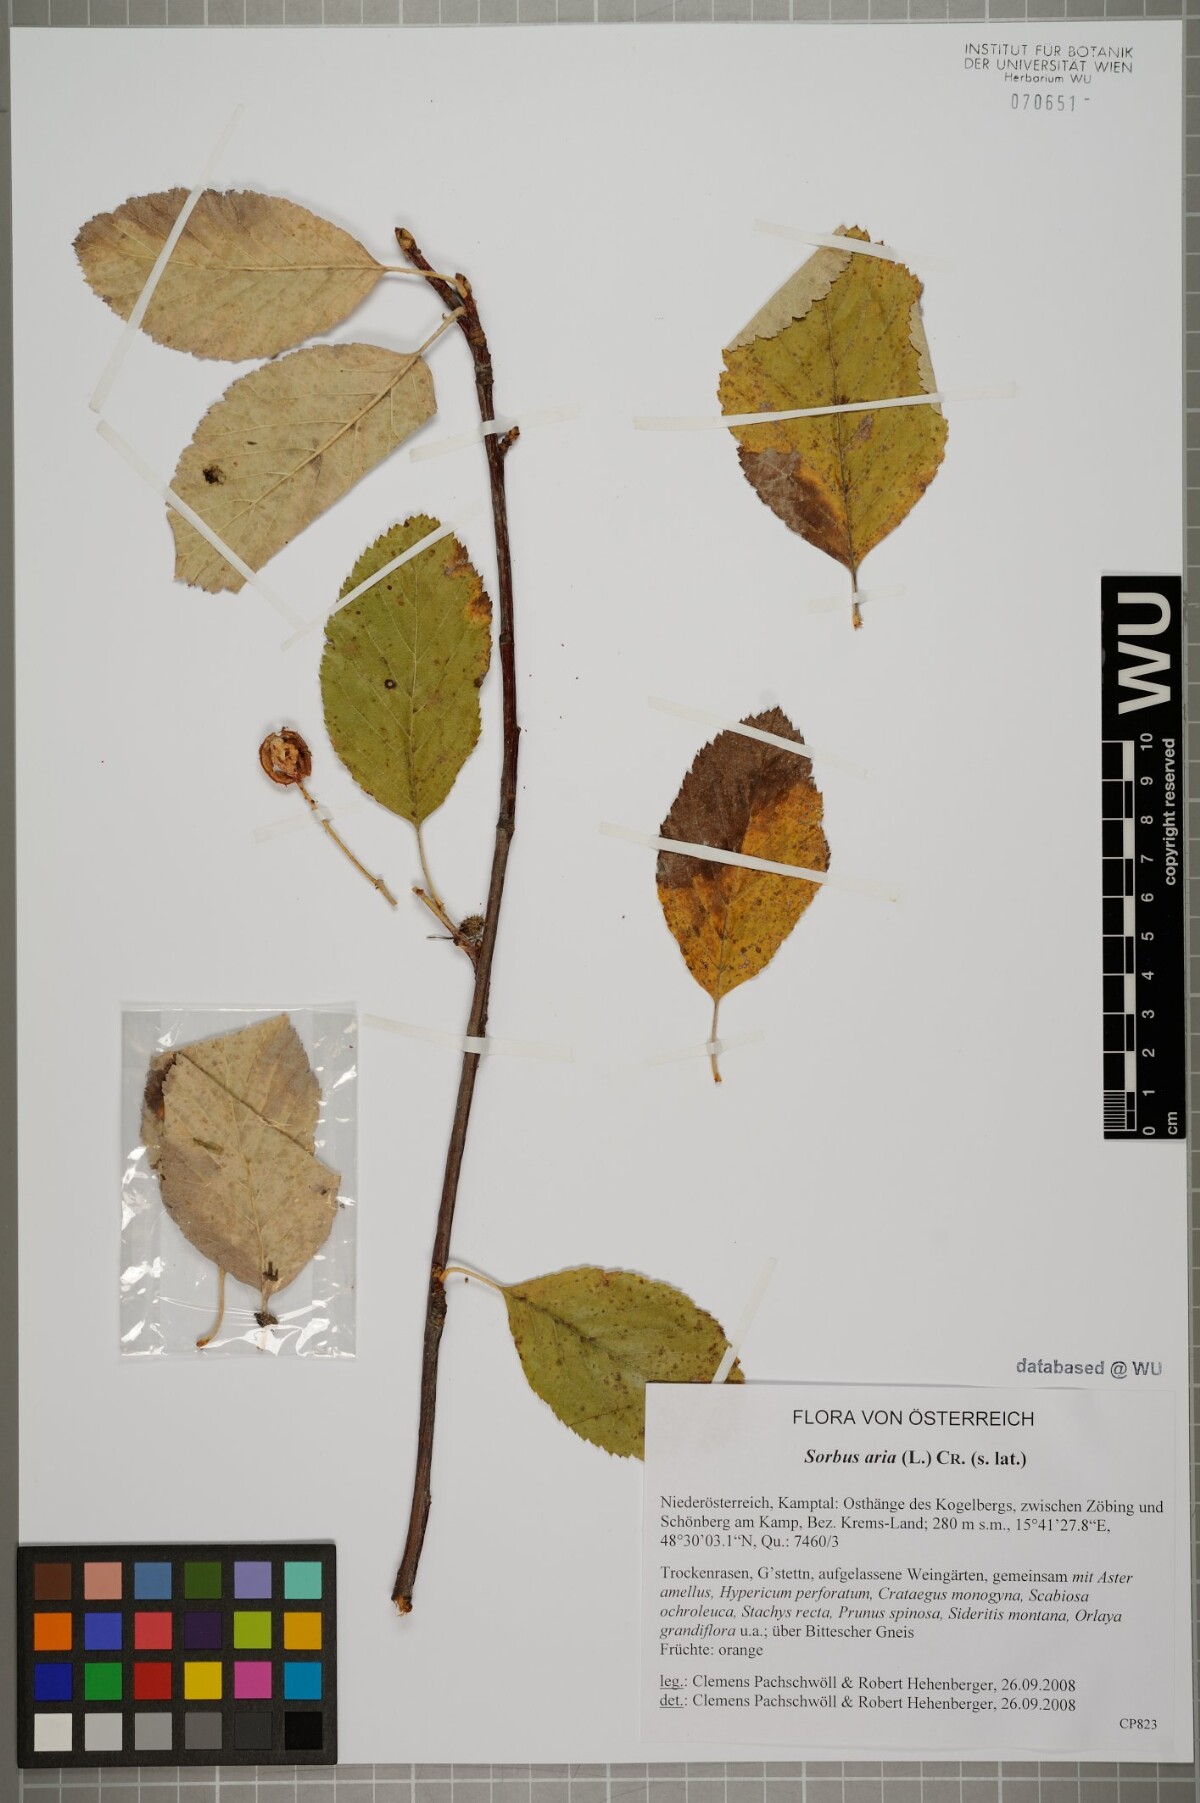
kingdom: Plantae
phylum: Tracheophyta
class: Magnoliopsida
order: Rosales
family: Rosaceae
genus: Aria
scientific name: Aria edulis
